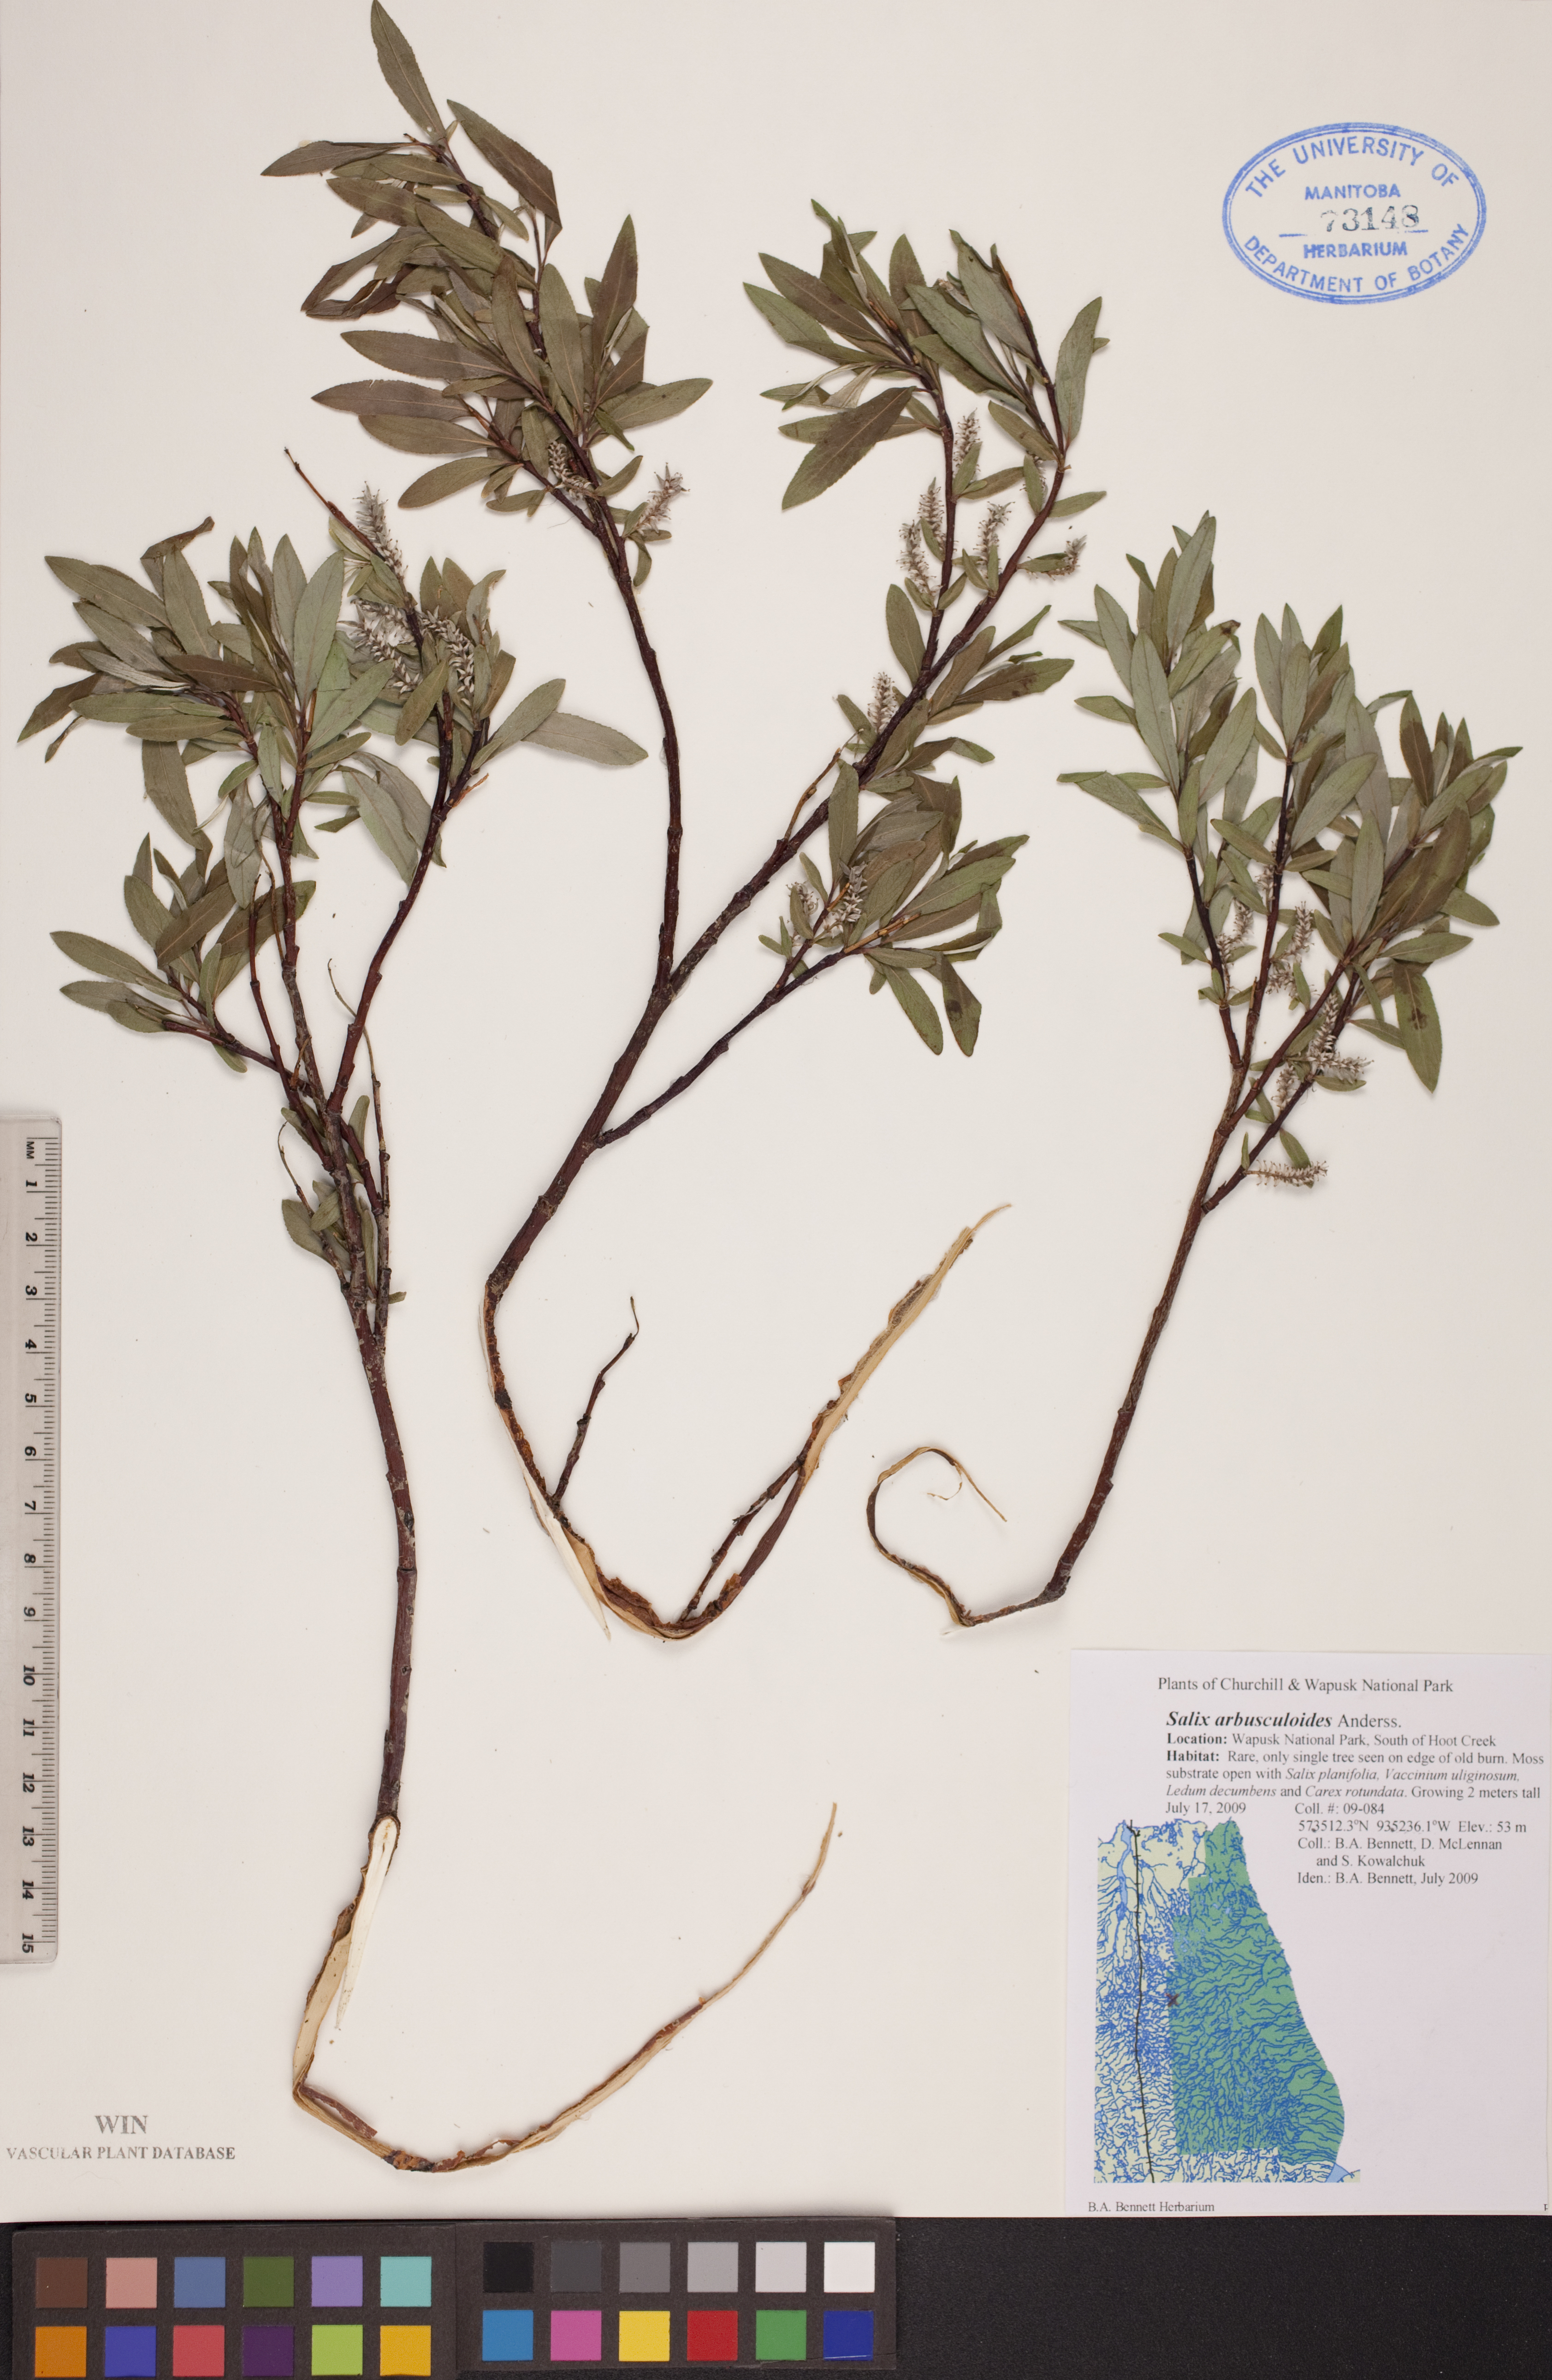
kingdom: Plantae
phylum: Tracheophyta
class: Magnoliopsida
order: Malpighiales
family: Salicaceae
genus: Salix
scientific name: Salix arbusculoides
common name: Little-tree willow
